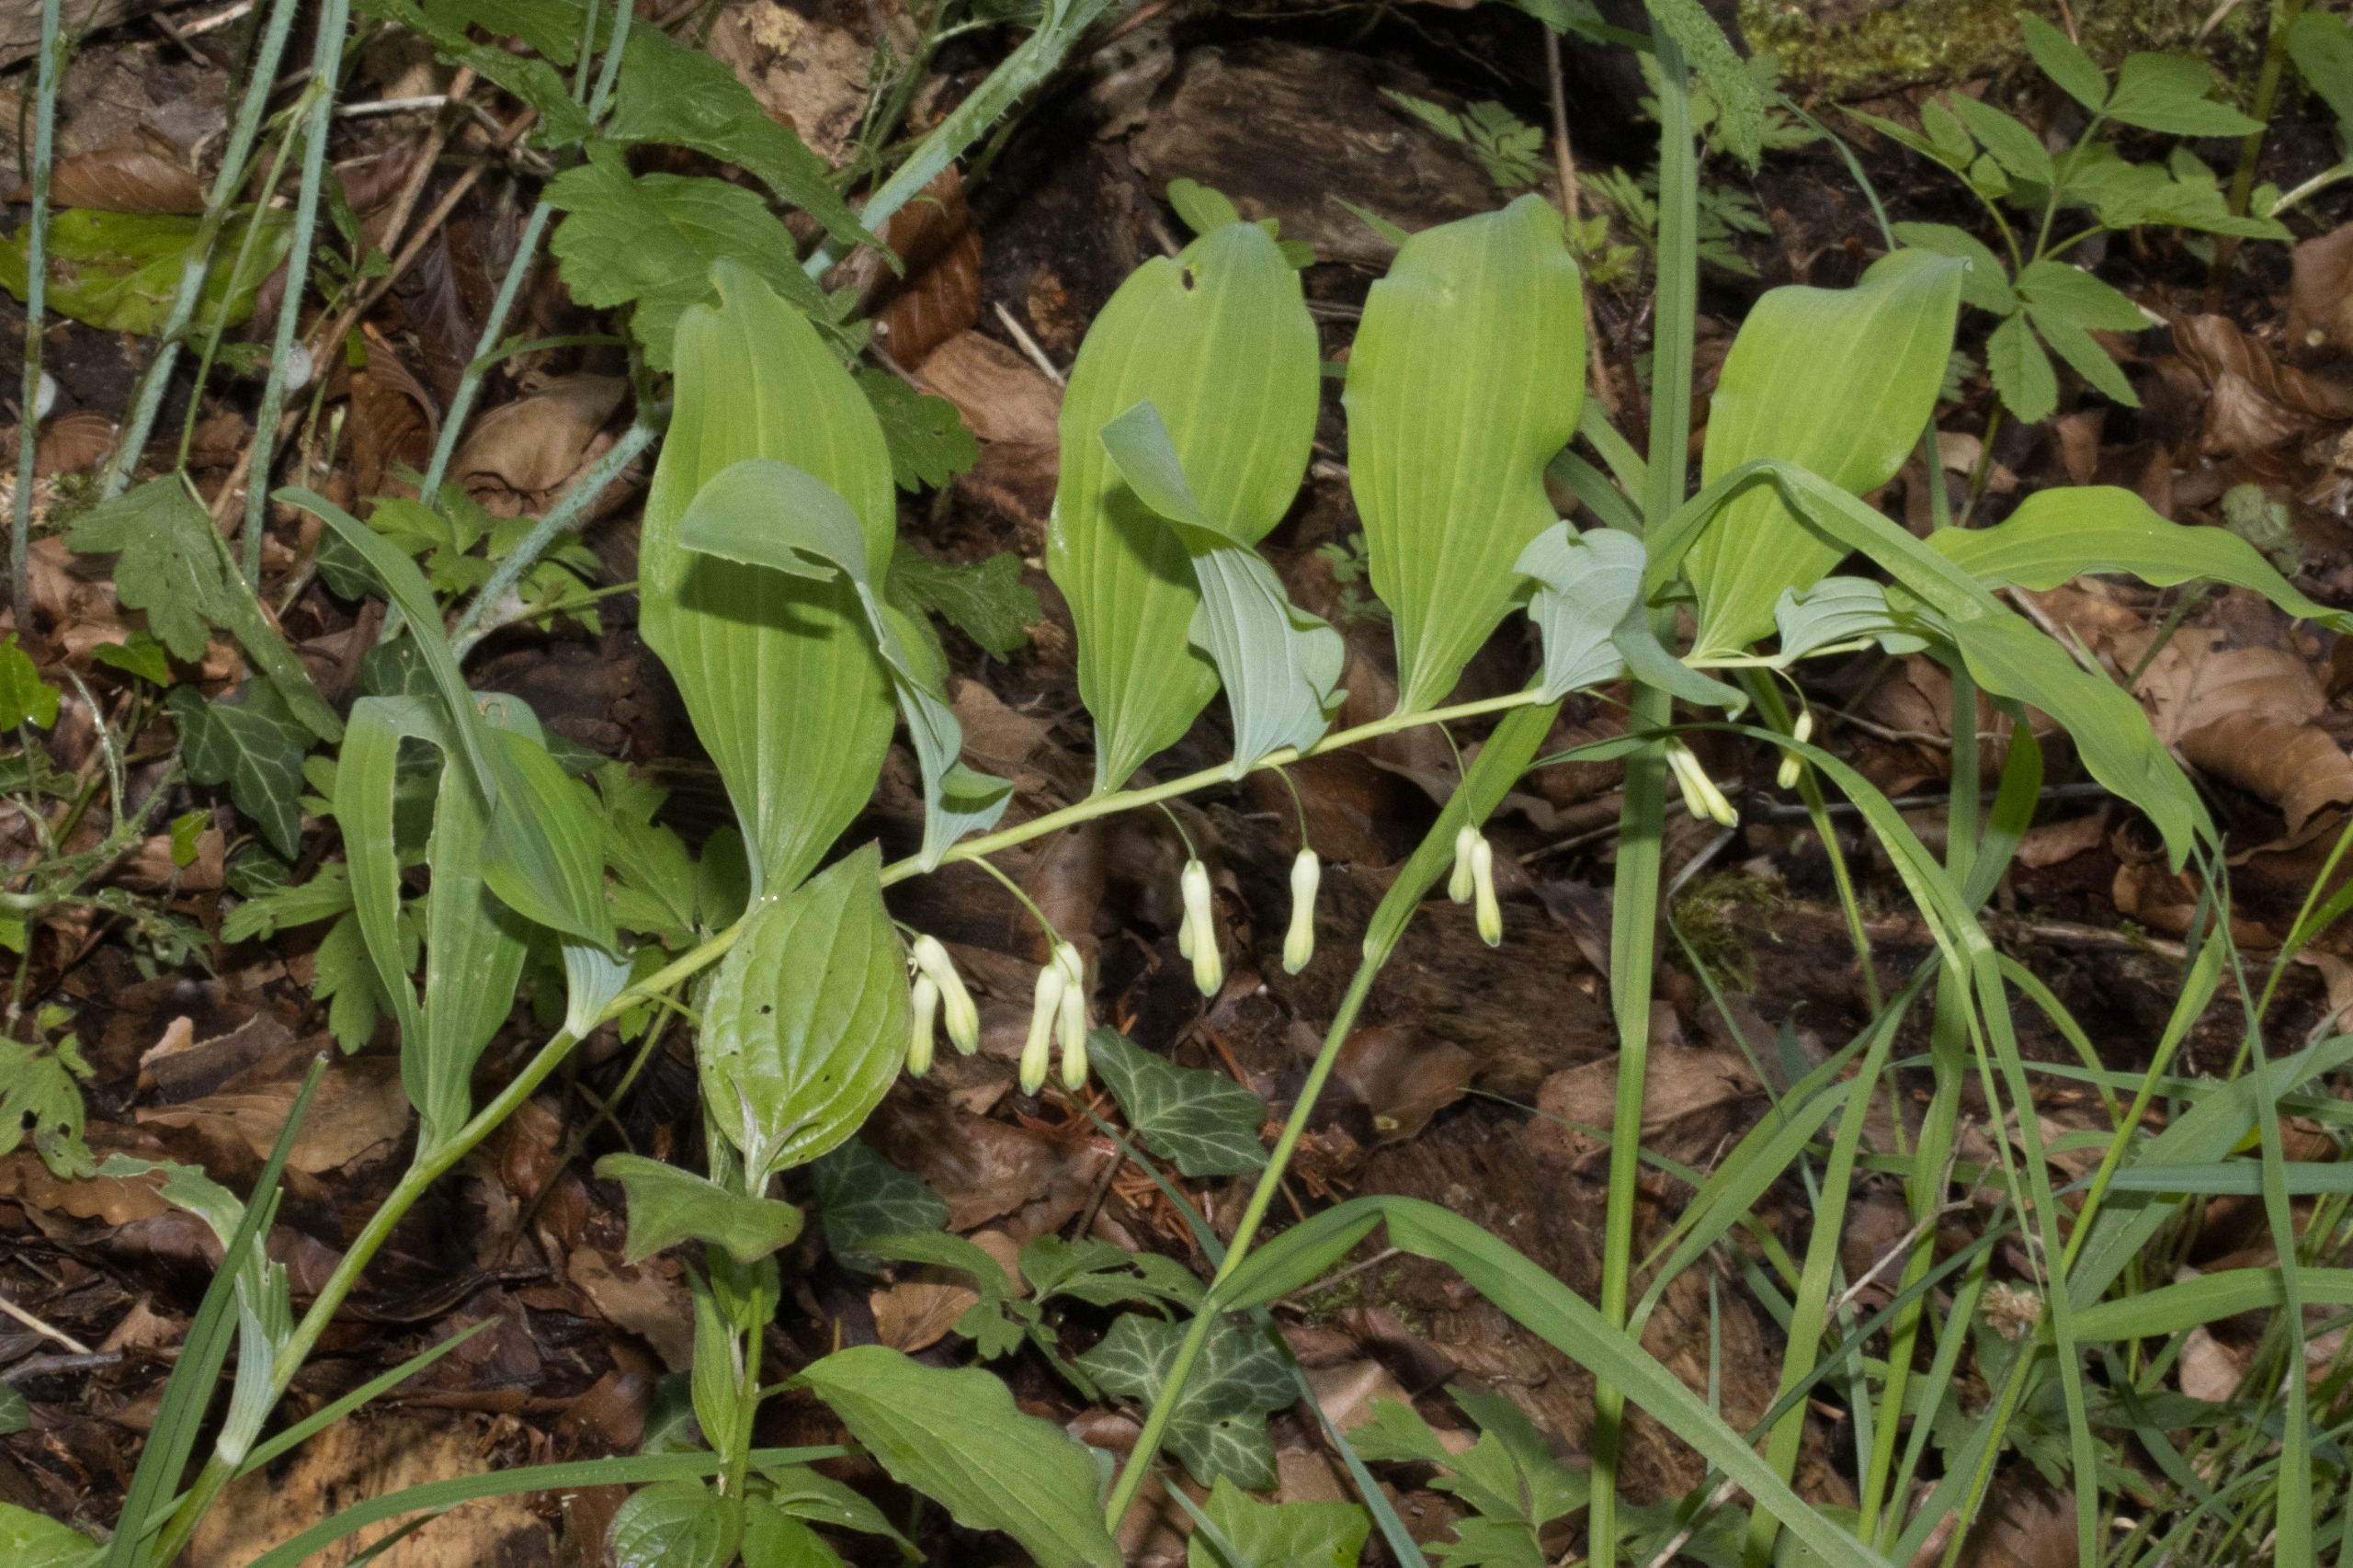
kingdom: Plantae
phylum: Tracheophyta
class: Liliopsida
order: Asparagales
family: Asparagaceae
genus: Polygonatum
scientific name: Polygonatum multiflorum
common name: Stor konval
